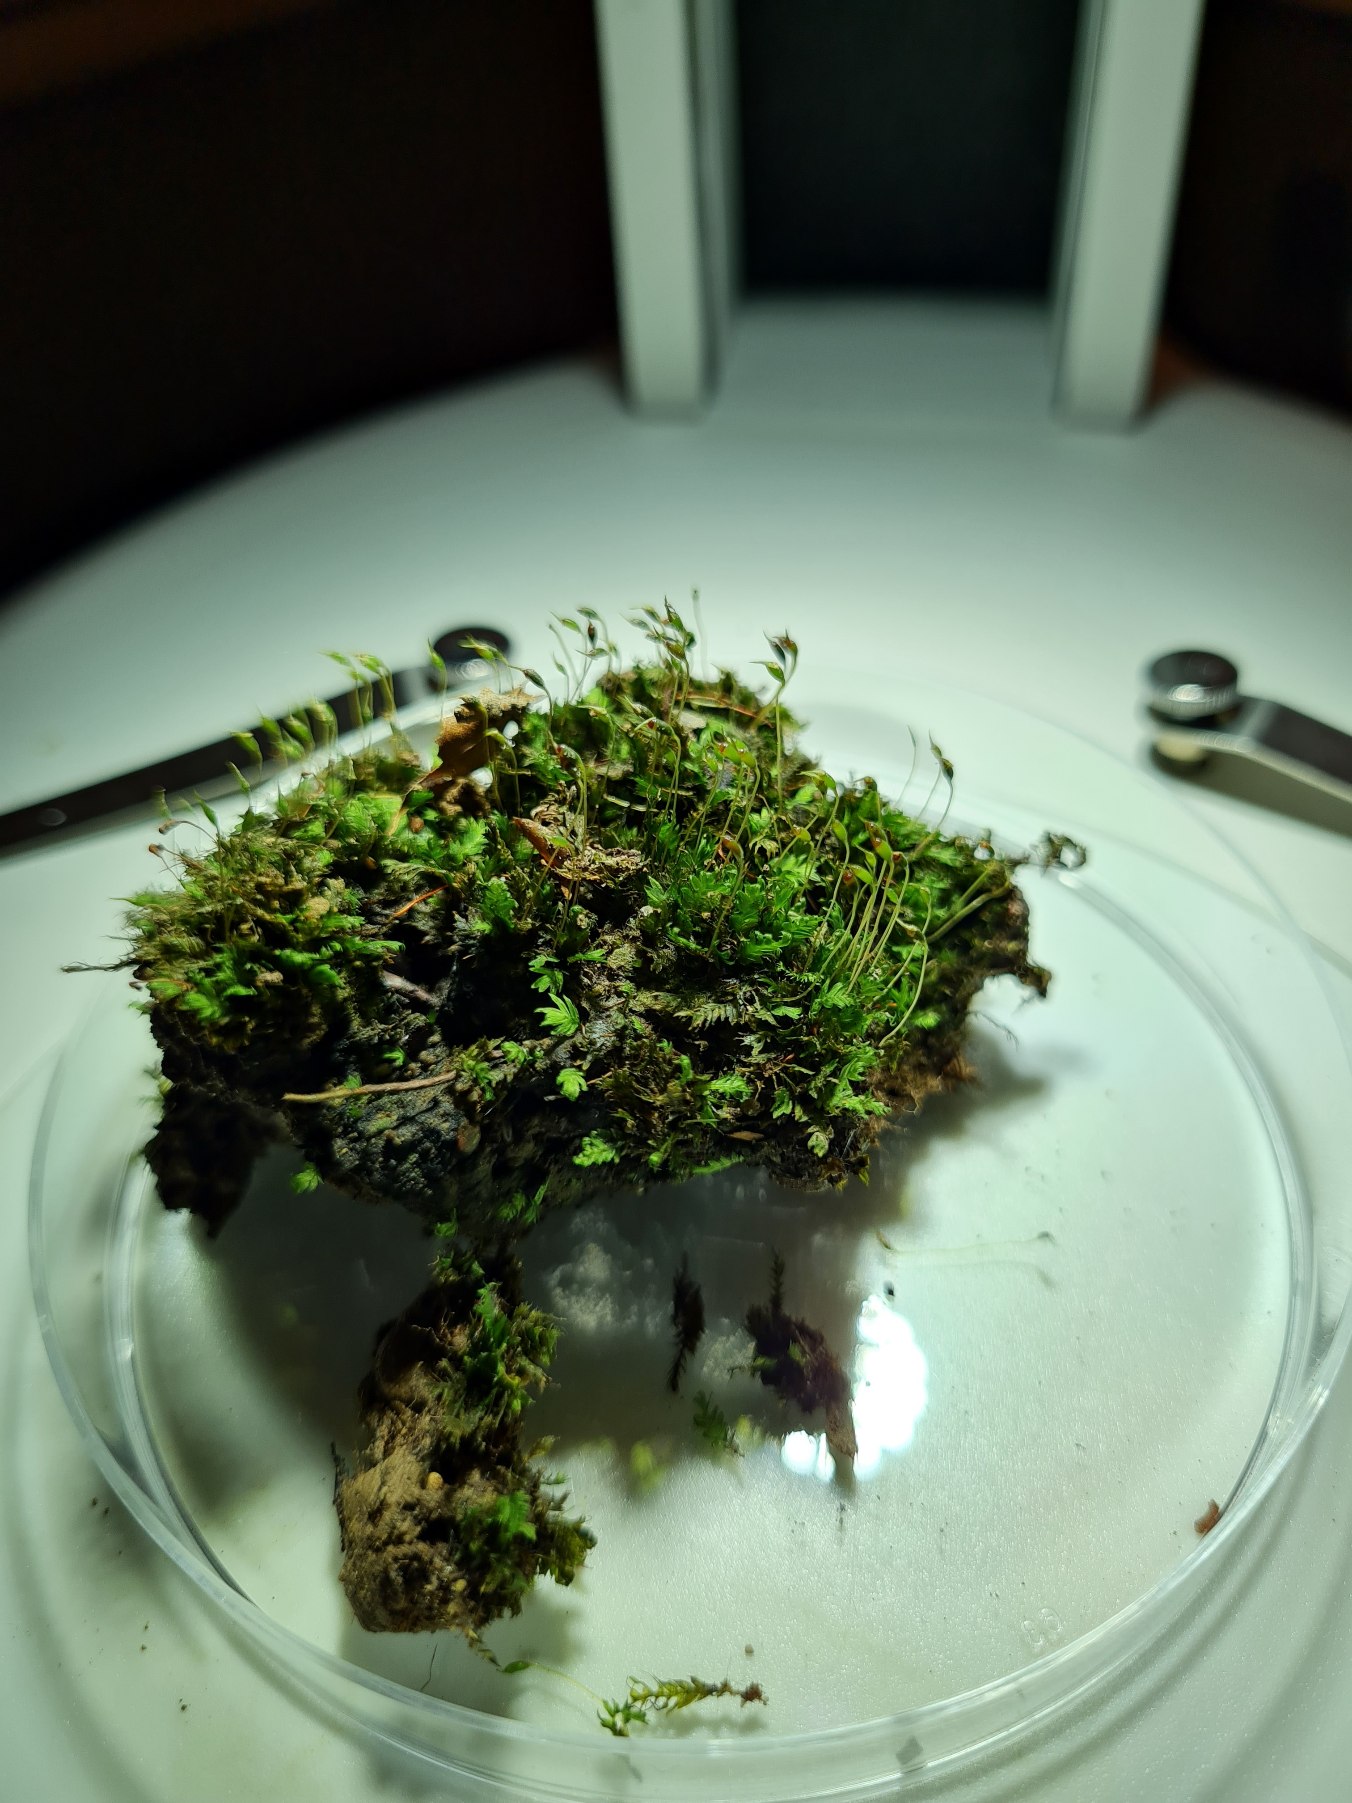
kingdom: Plantae
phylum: Bryophyta
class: Bryopsida
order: Dicranales
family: Fissidentaceae
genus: Fissidens
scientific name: Fissidens taxifolius
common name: Taksbladet rademos
